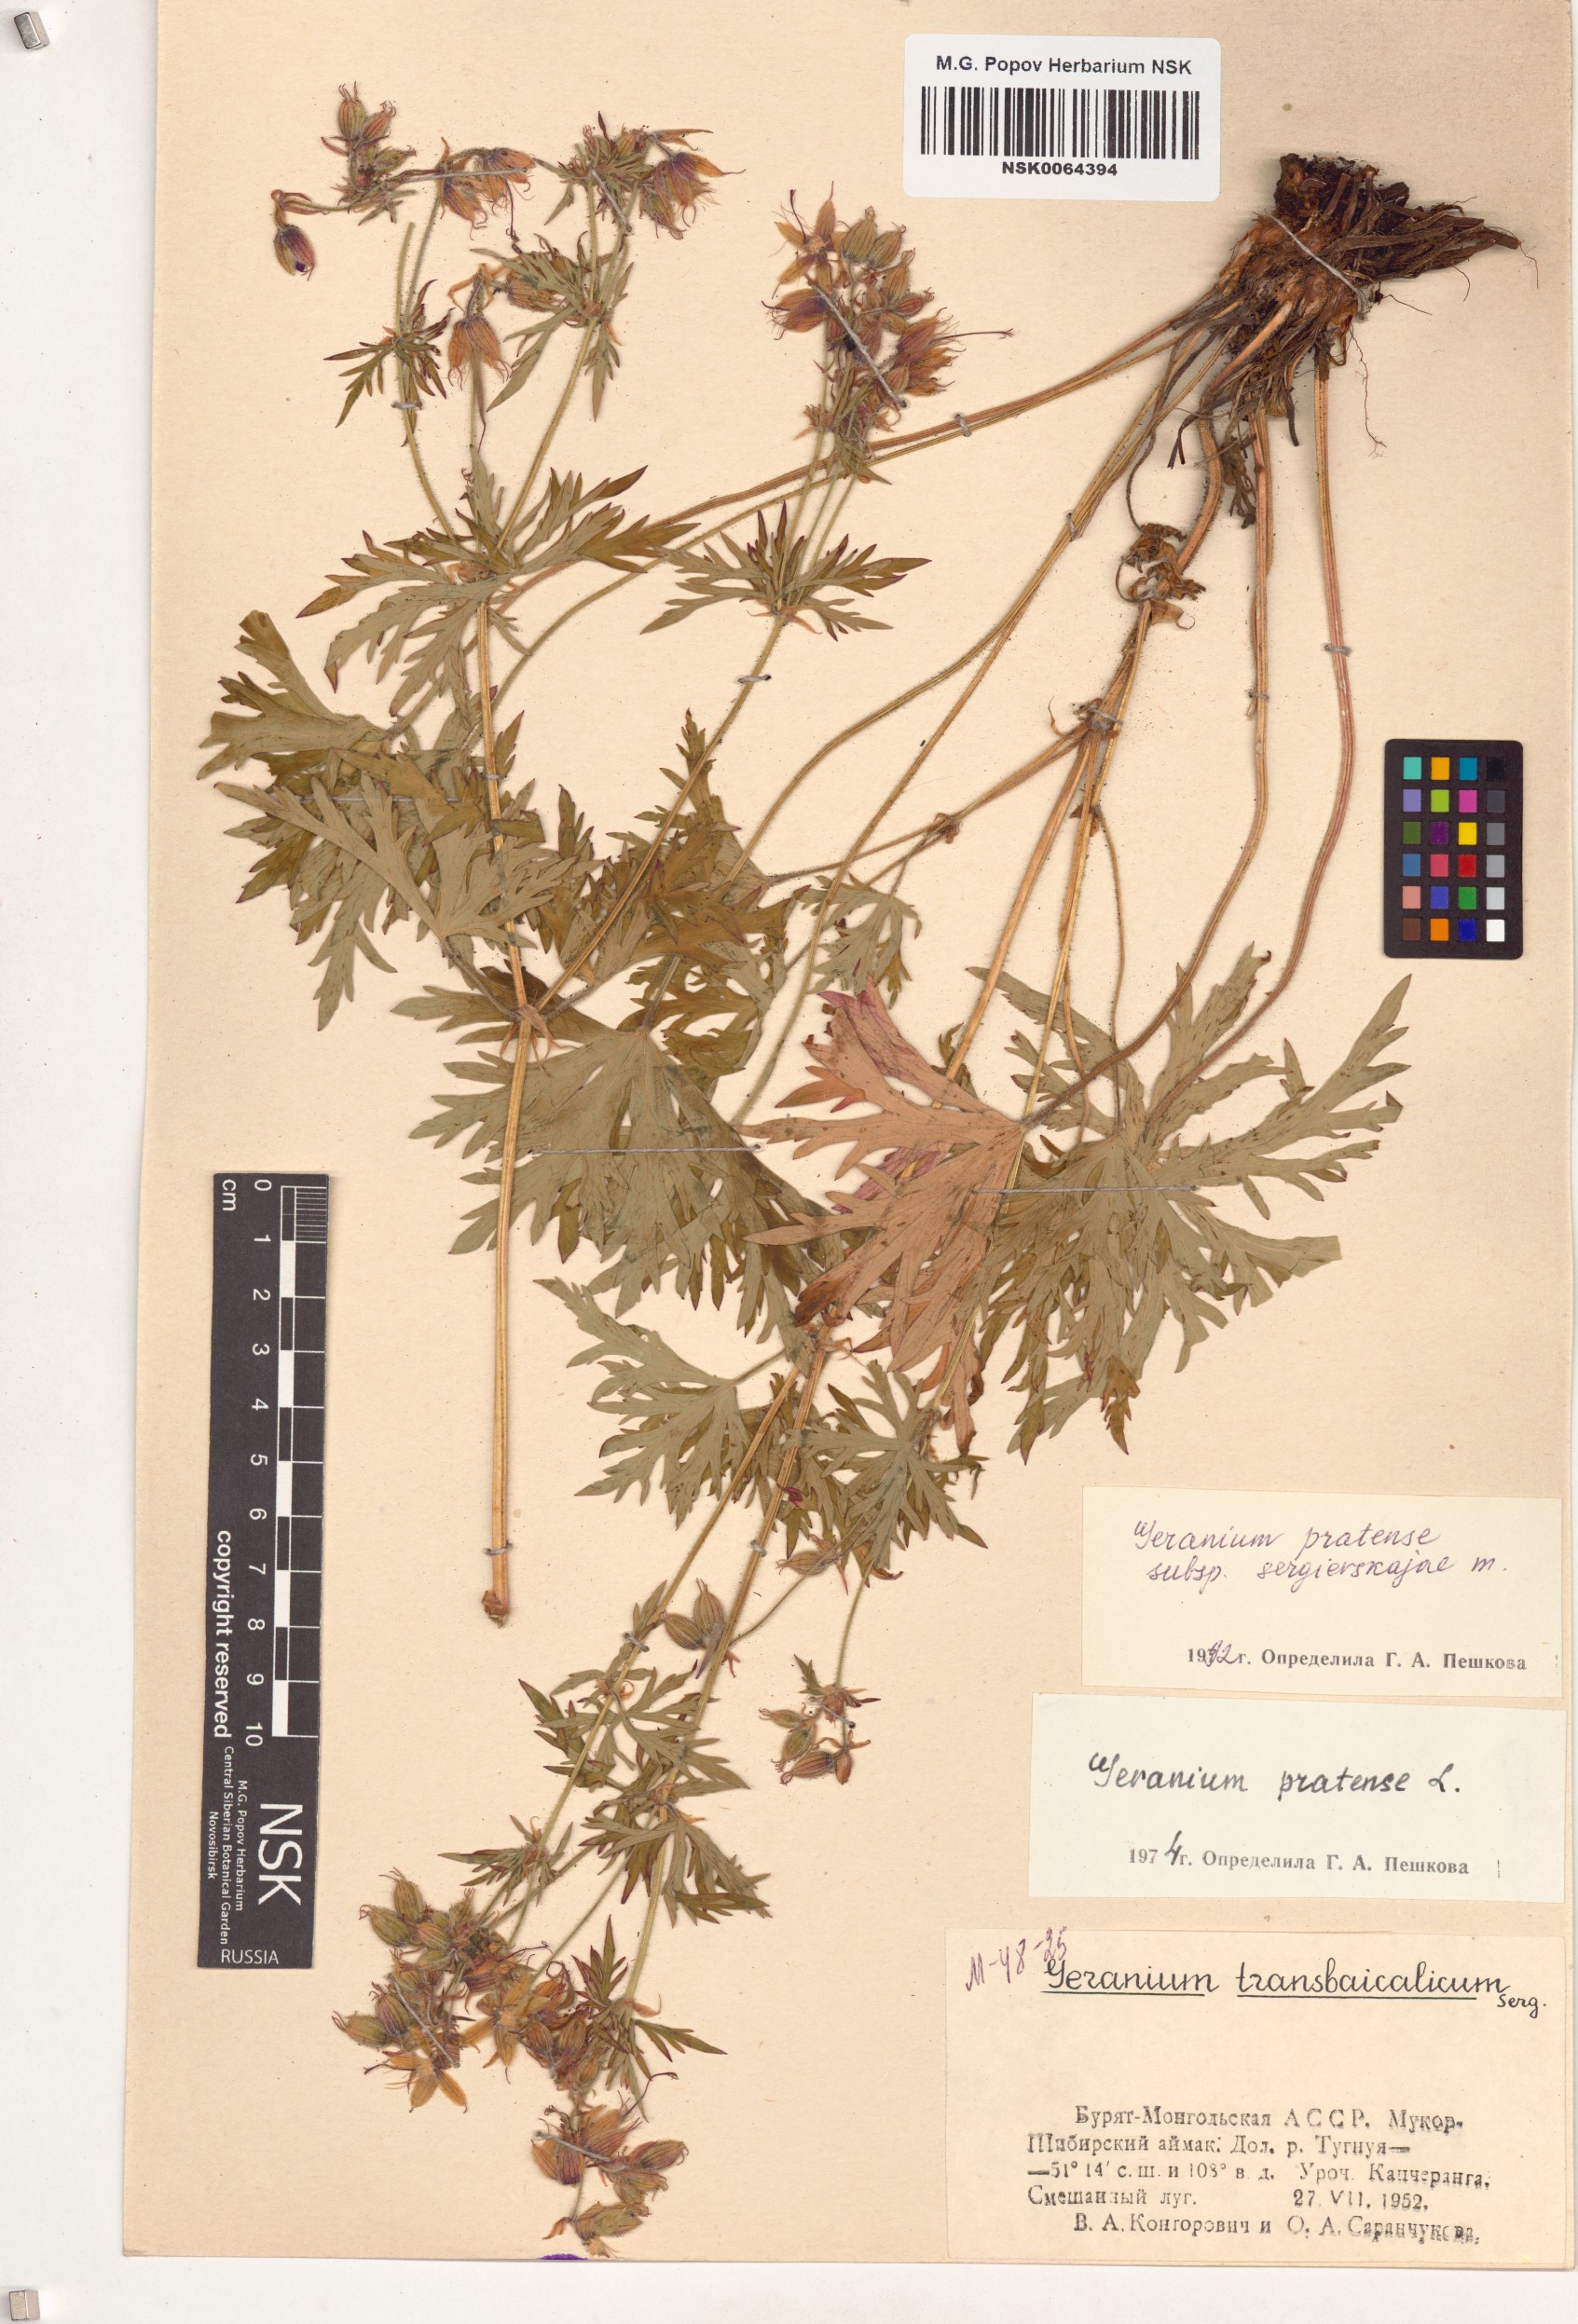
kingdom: Plantae
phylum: Tracheophyta
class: Magnoliopsida
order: Geraniales
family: Geraniaceae
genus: Geranium
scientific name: Geranium pratense
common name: Meadow crane's-bill
